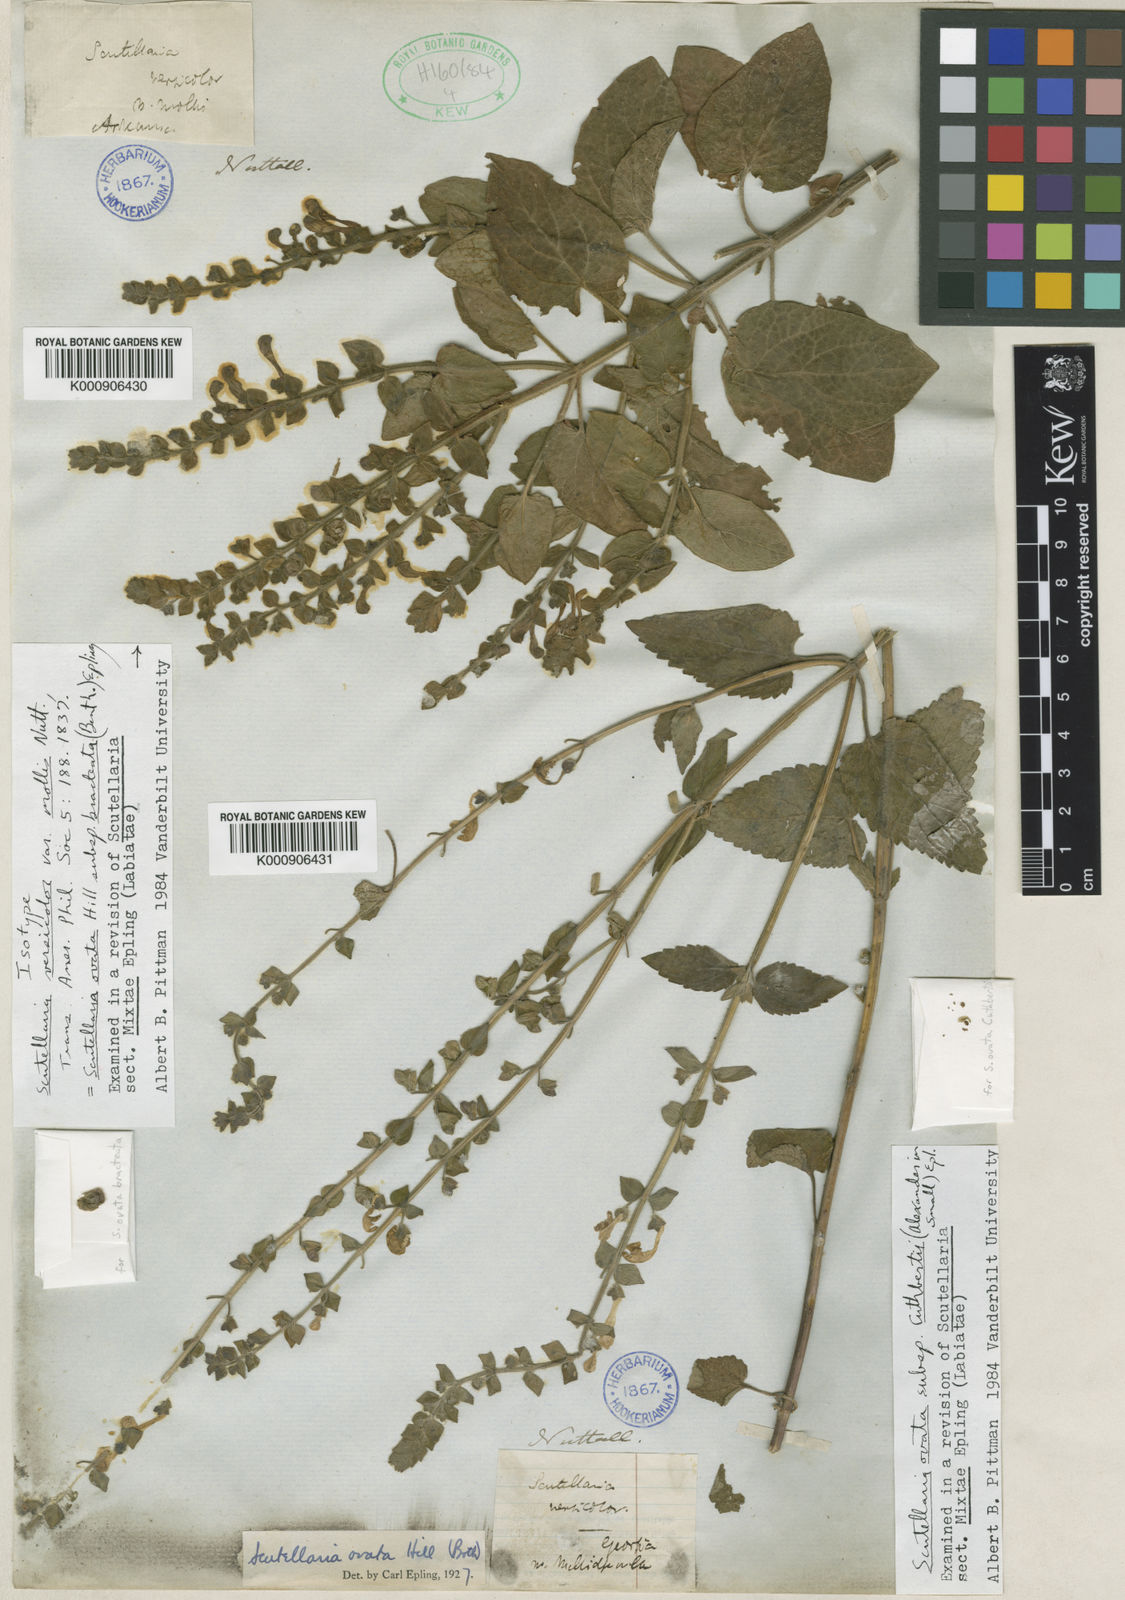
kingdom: Plantae
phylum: Tracheophyta
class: Magnoliopsida
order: Lamiales
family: Lamiaceae
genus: Scutellaria
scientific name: Scutellaria ovata
